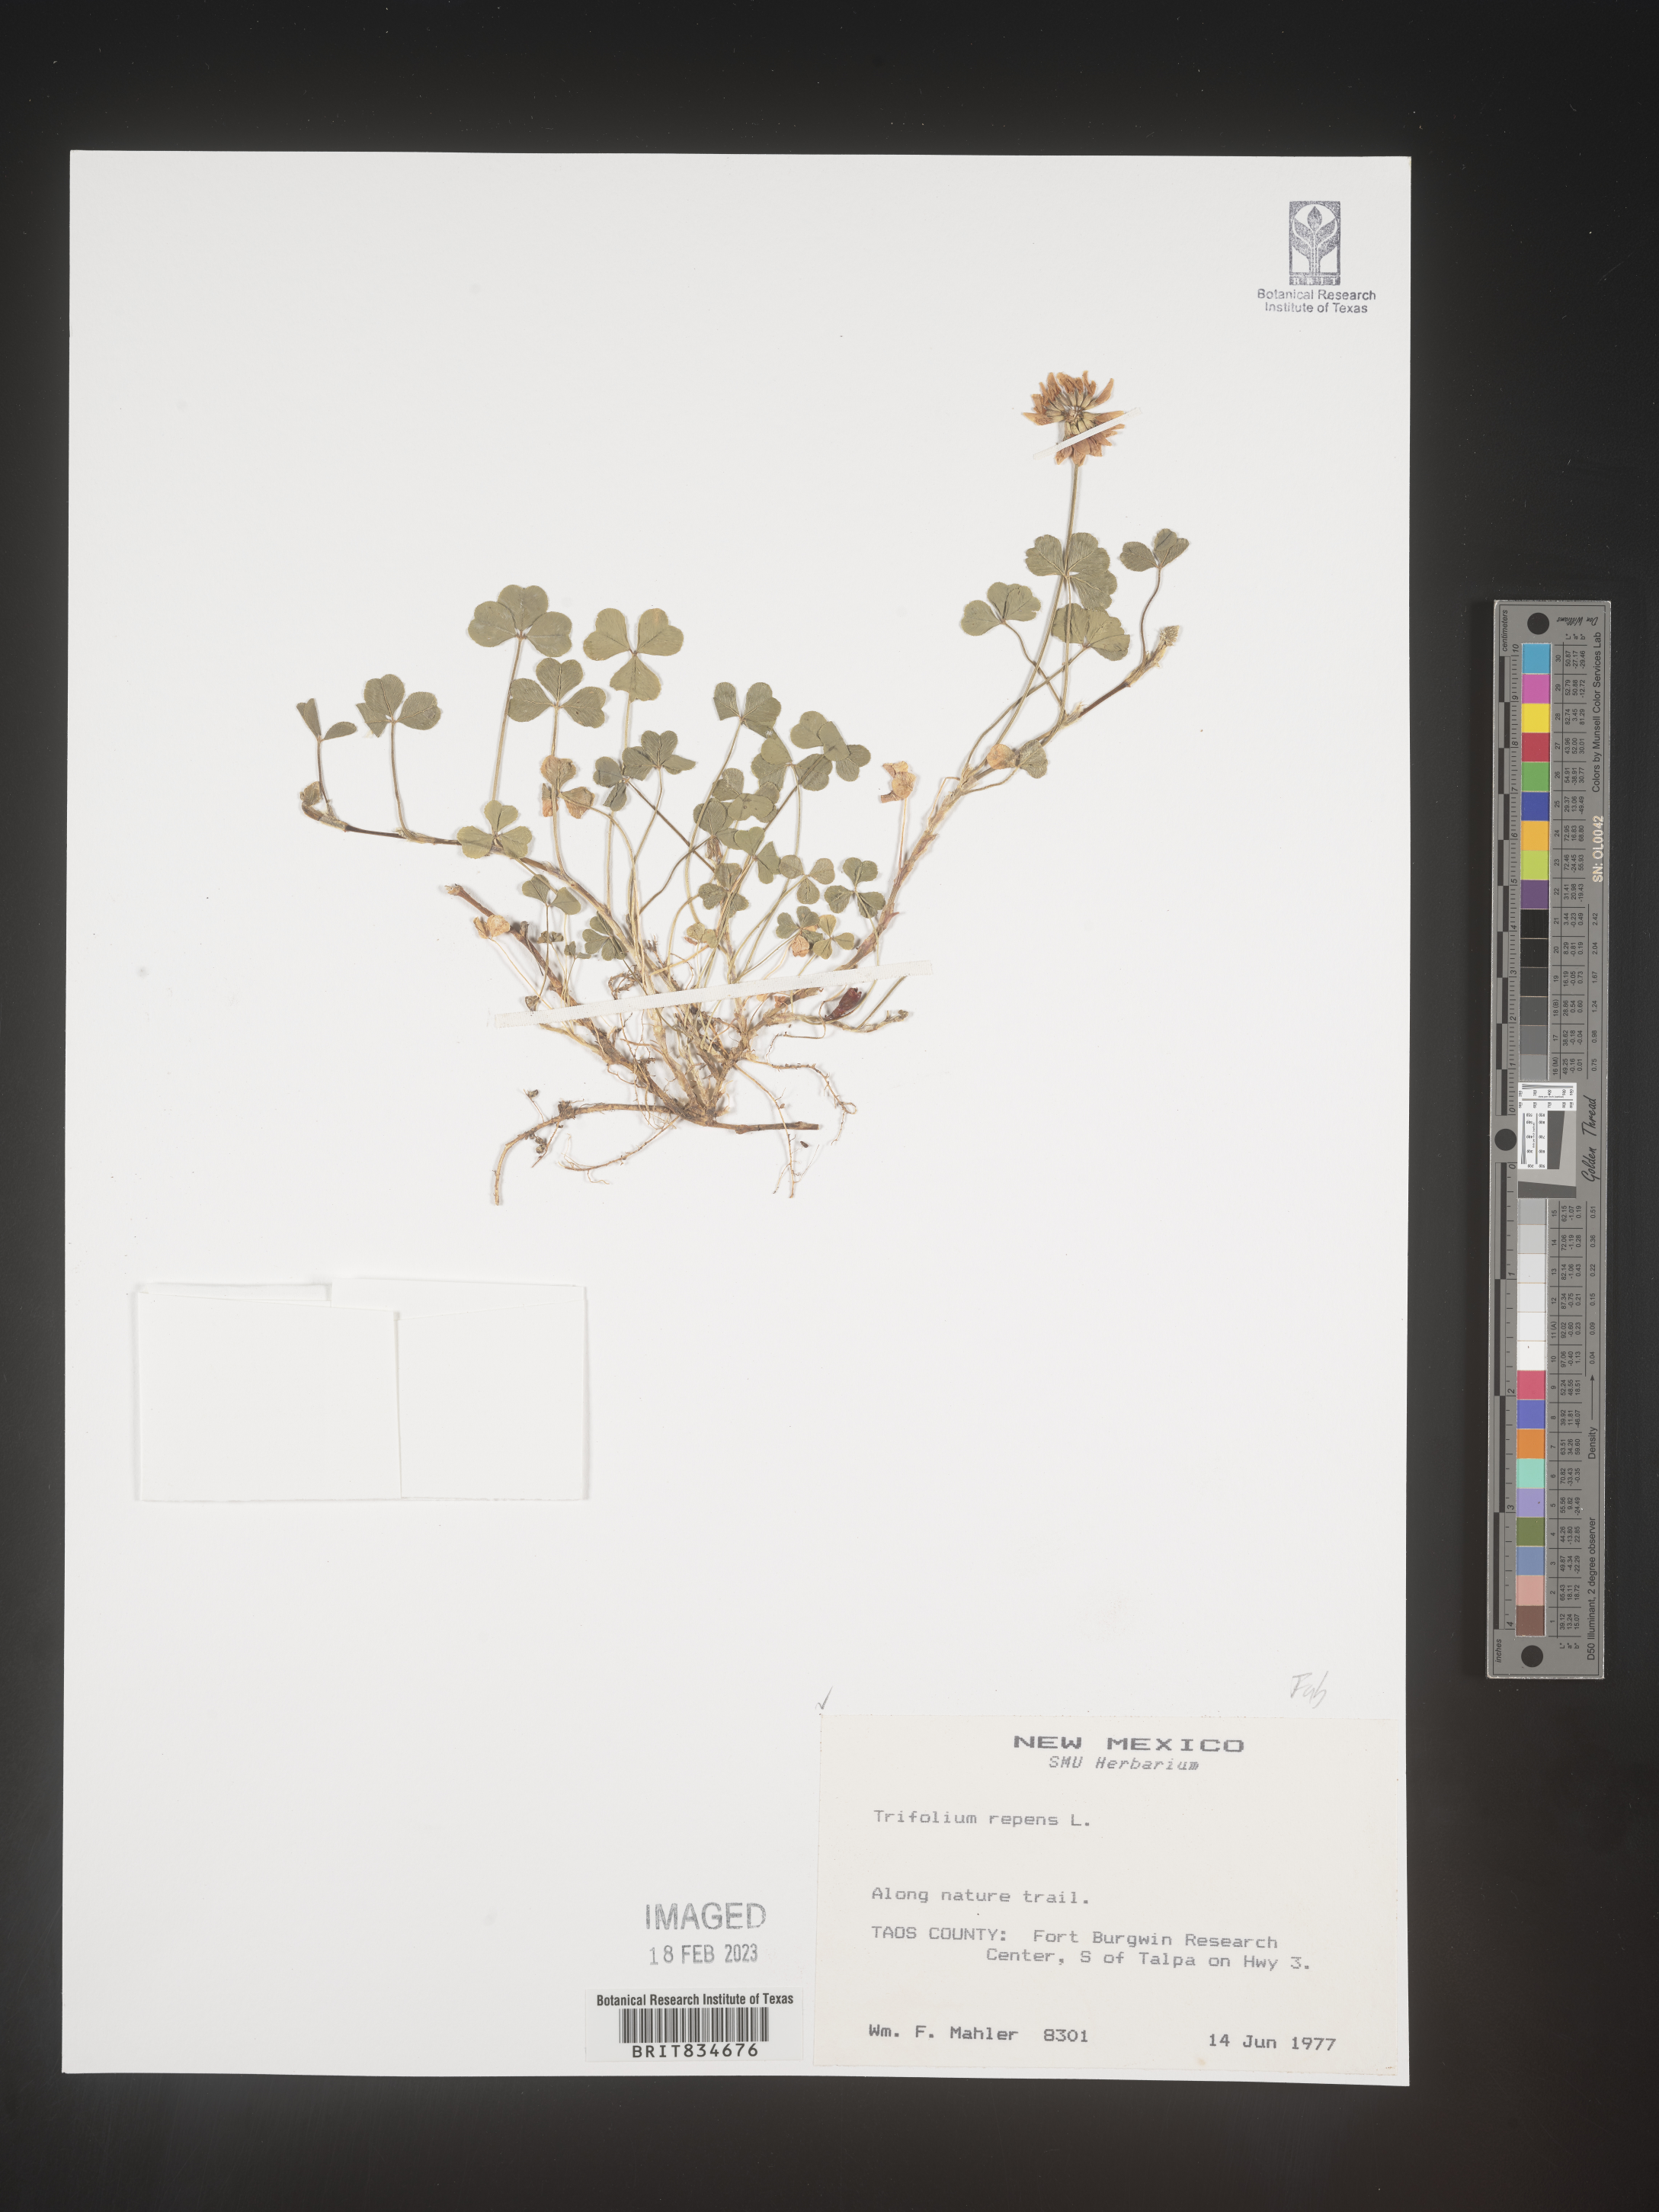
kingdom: Plantae
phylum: Tracheophyta
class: Magnoliopsida
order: Fabales
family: Fabaceae
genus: Trifolium
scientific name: Trifolium repens
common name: White clover
